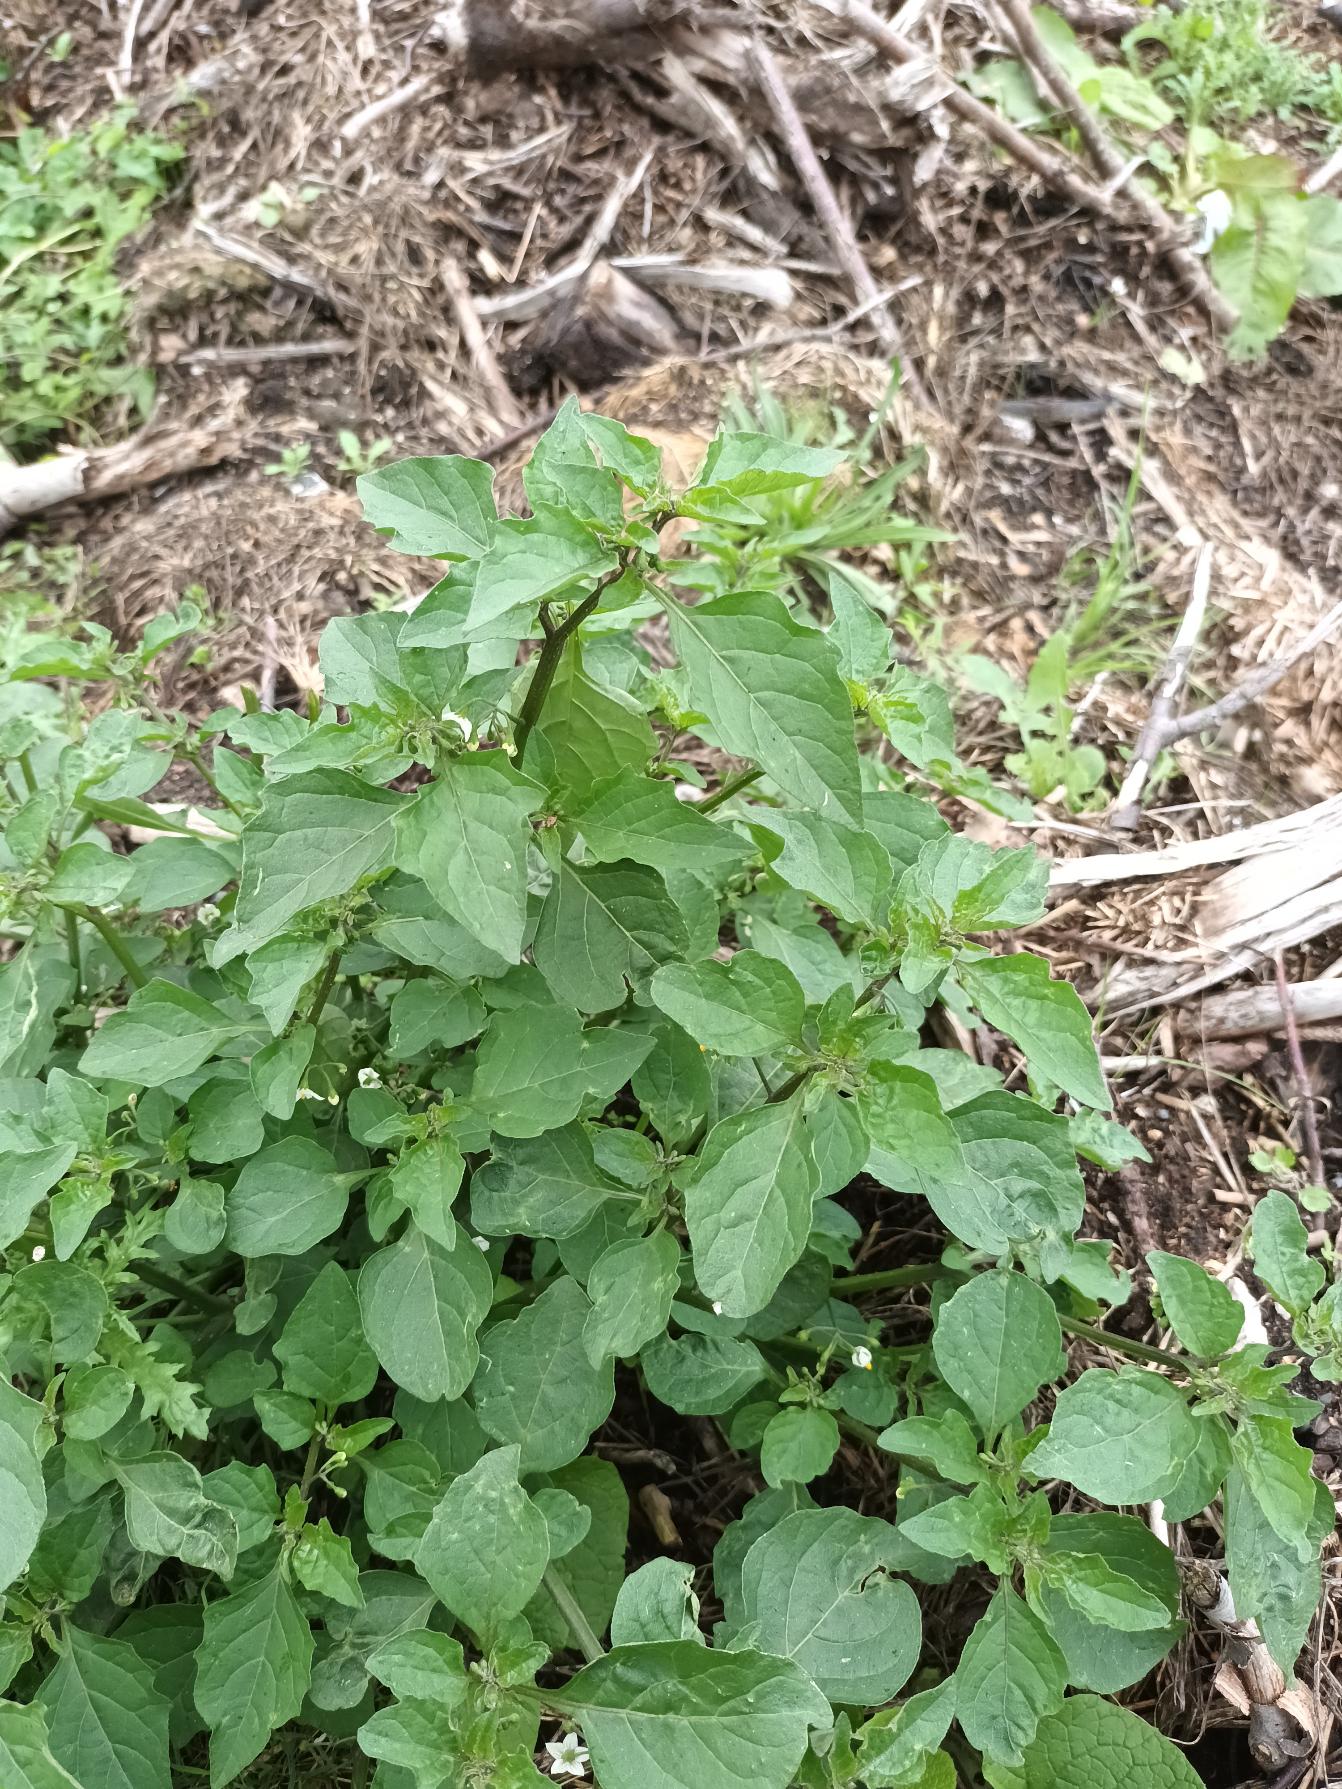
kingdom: Plantae
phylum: Tracheophyta
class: Magnoliopsida
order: Solanales
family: Solanaceae
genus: Solanum
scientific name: Solanum nigrum
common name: Sort natskygge
